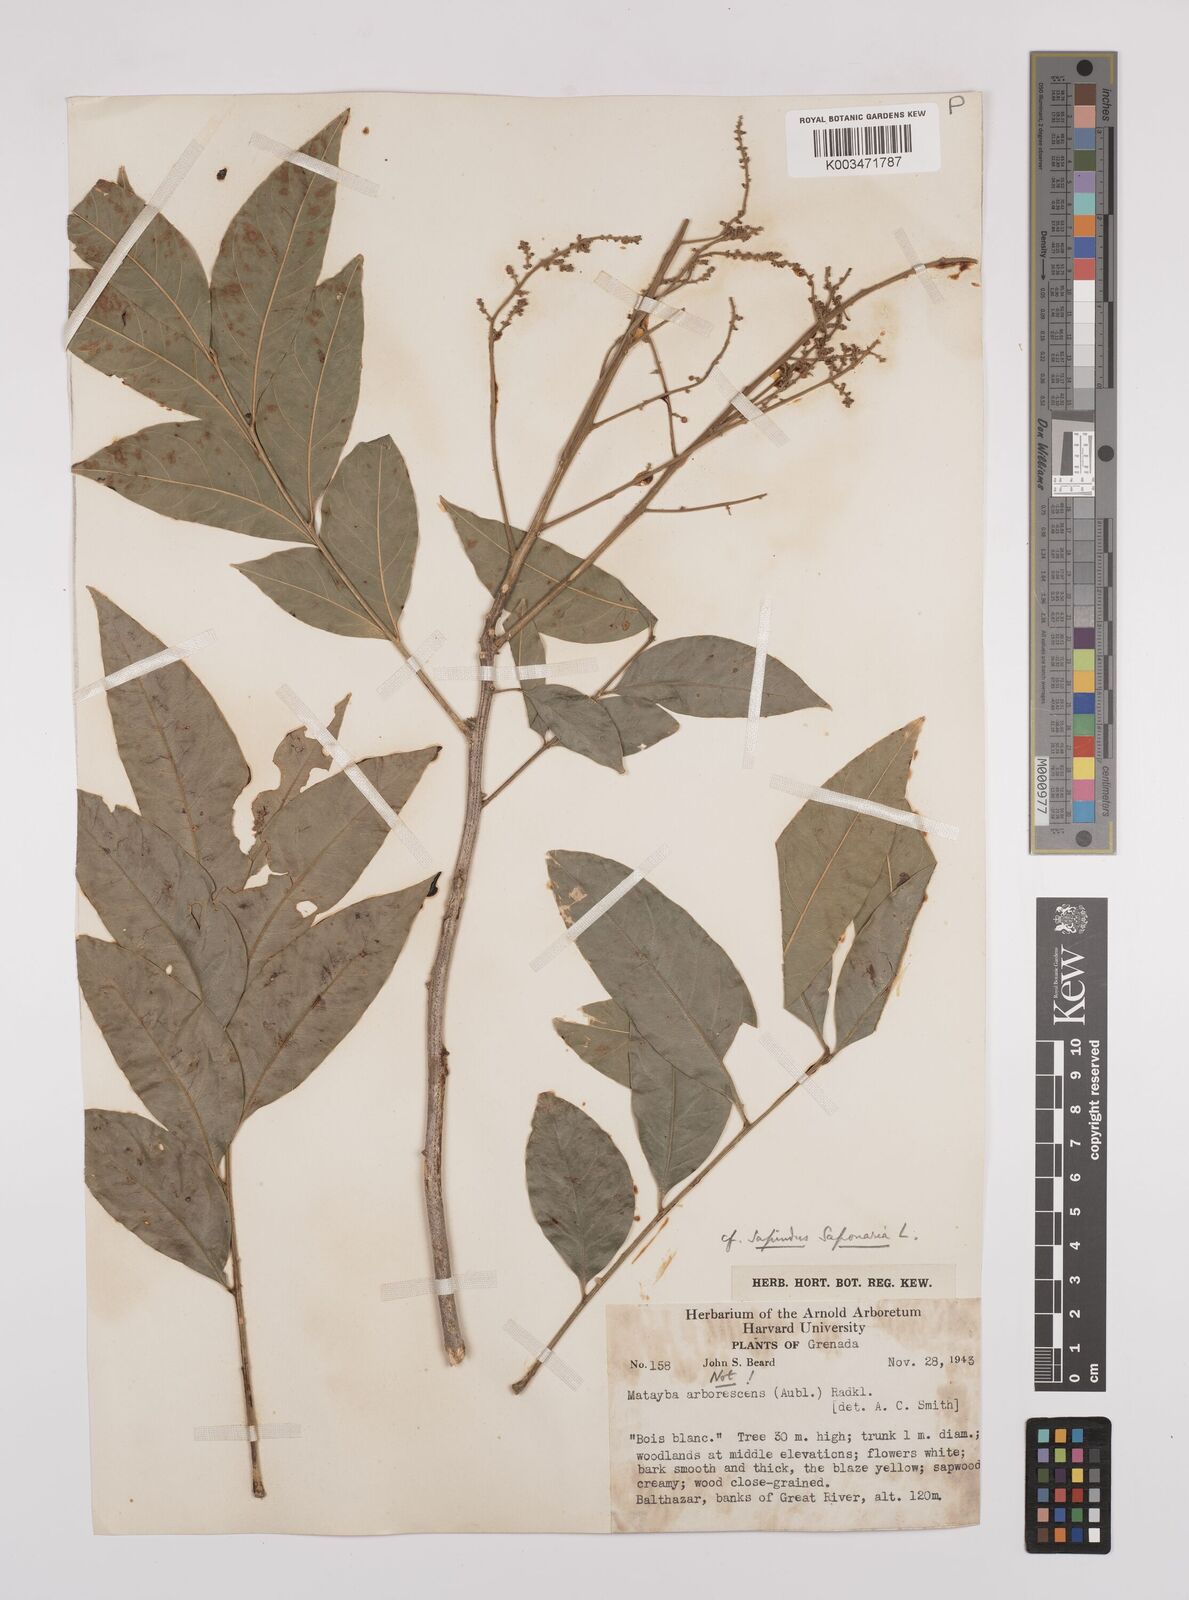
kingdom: Plantae
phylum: Tracheophyta
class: Magnoliopsida
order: Sapindales
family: Sapindaceae
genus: Sapindus
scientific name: Sapindus saponaria
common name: Wingleaf soapberry
